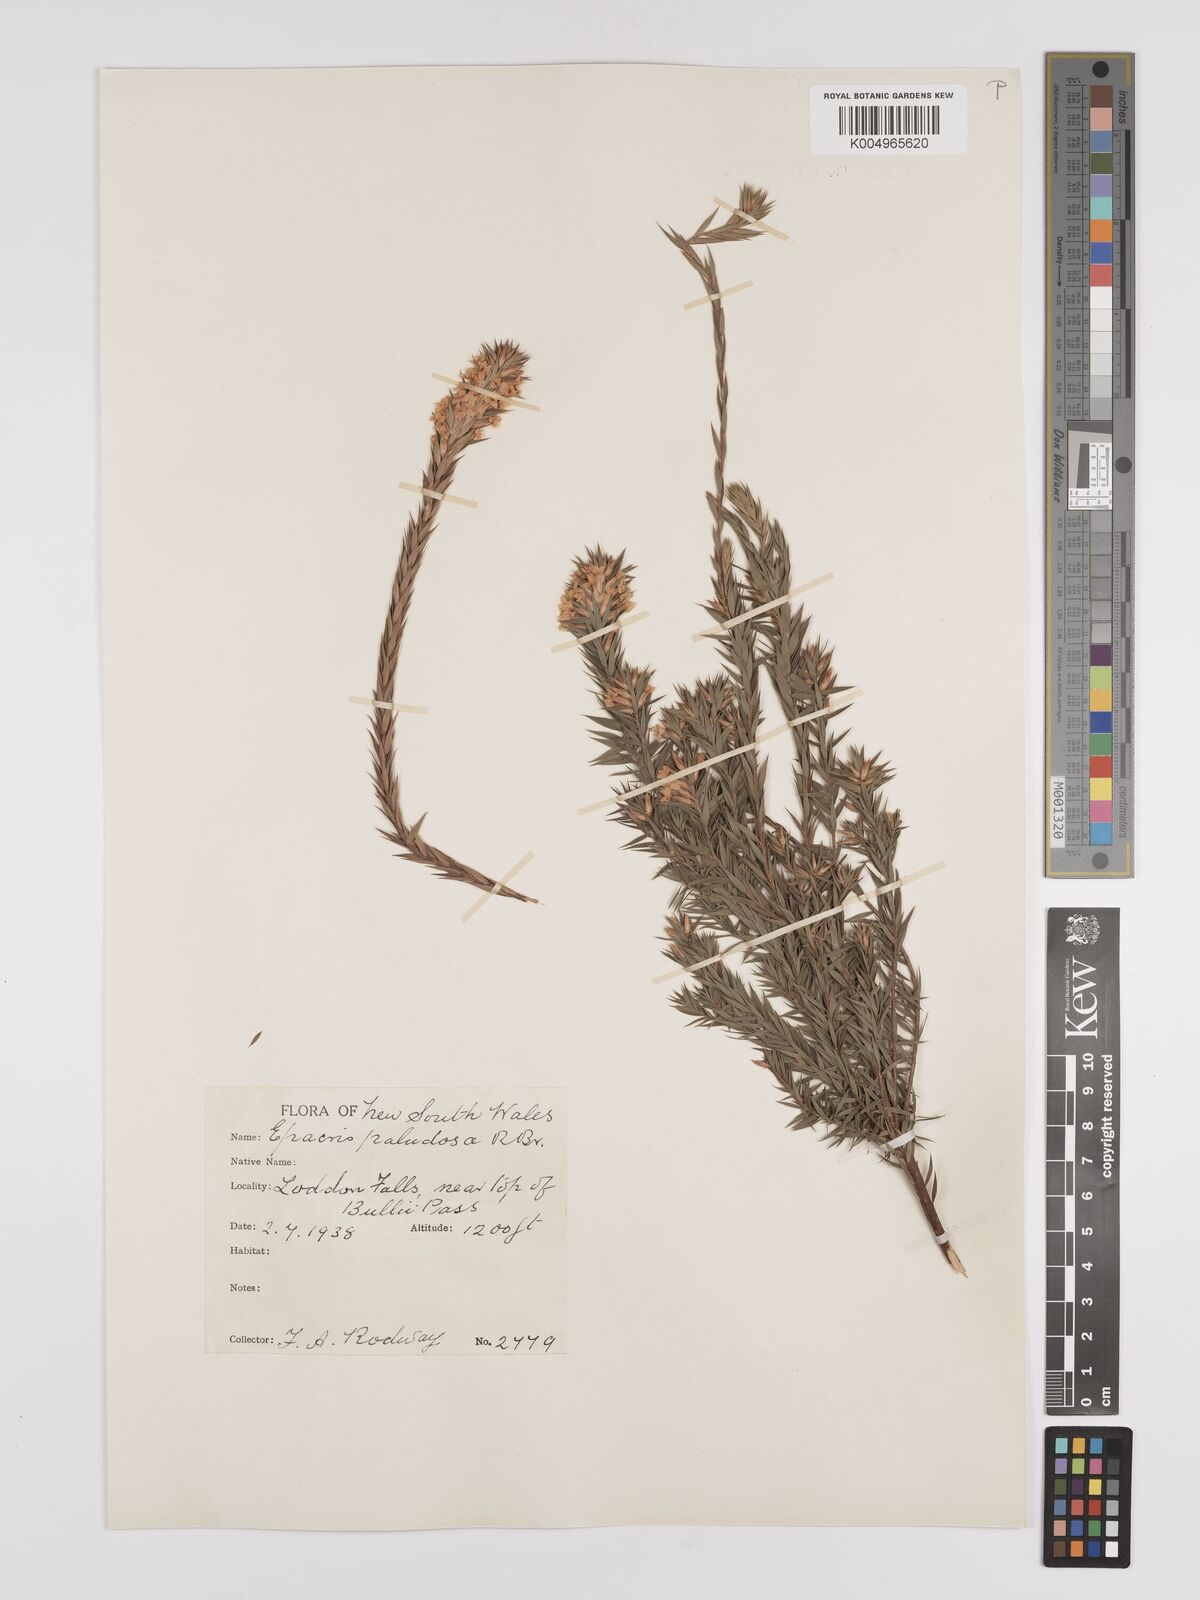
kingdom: Plantae
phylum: Tracheophyta
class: Magnoliopsida
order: Ericales
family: Ericaceae
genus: Epacris
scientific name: Epacris paludosa
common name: Swamp-heath
